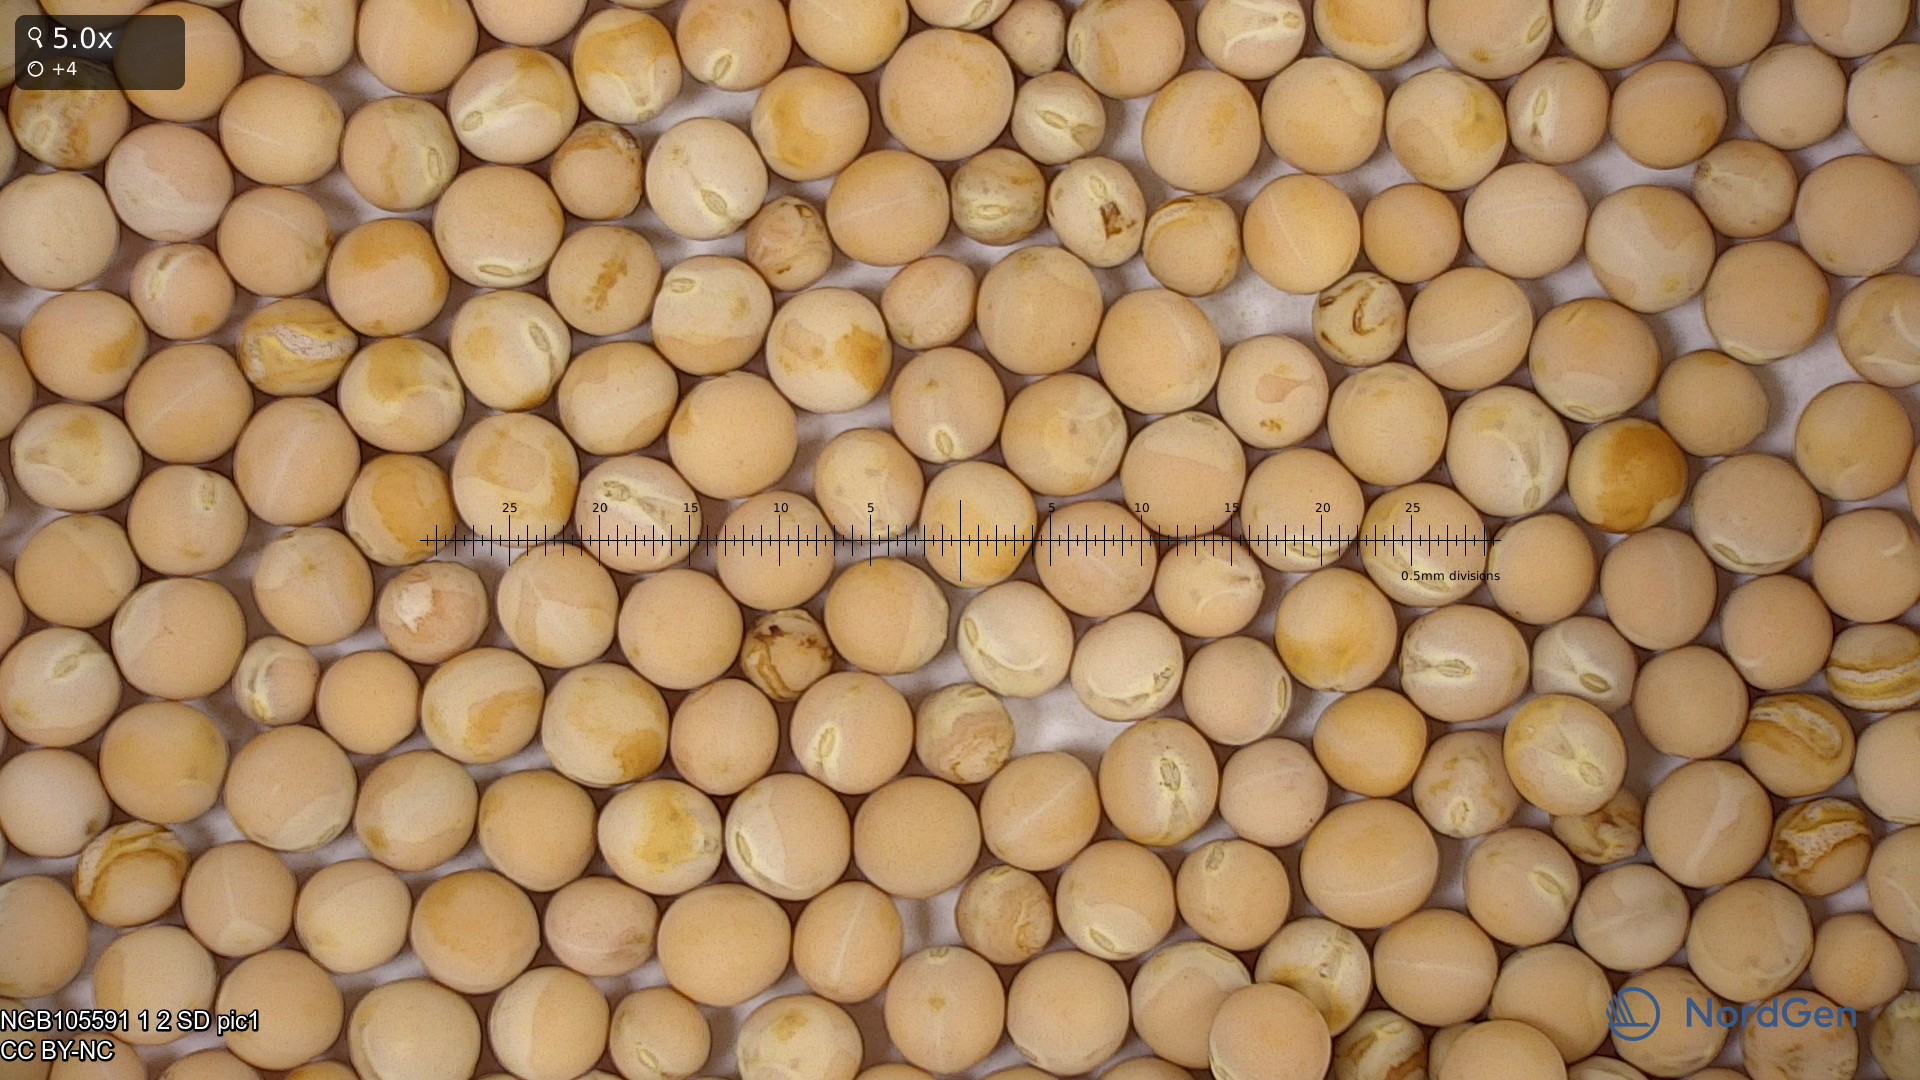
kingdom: Plantae
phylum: Tracheophyta
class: Magnoliopsida
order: Fabales
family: Fabaceae
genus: Lathyrus
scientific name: Lathyrus oleraceus
